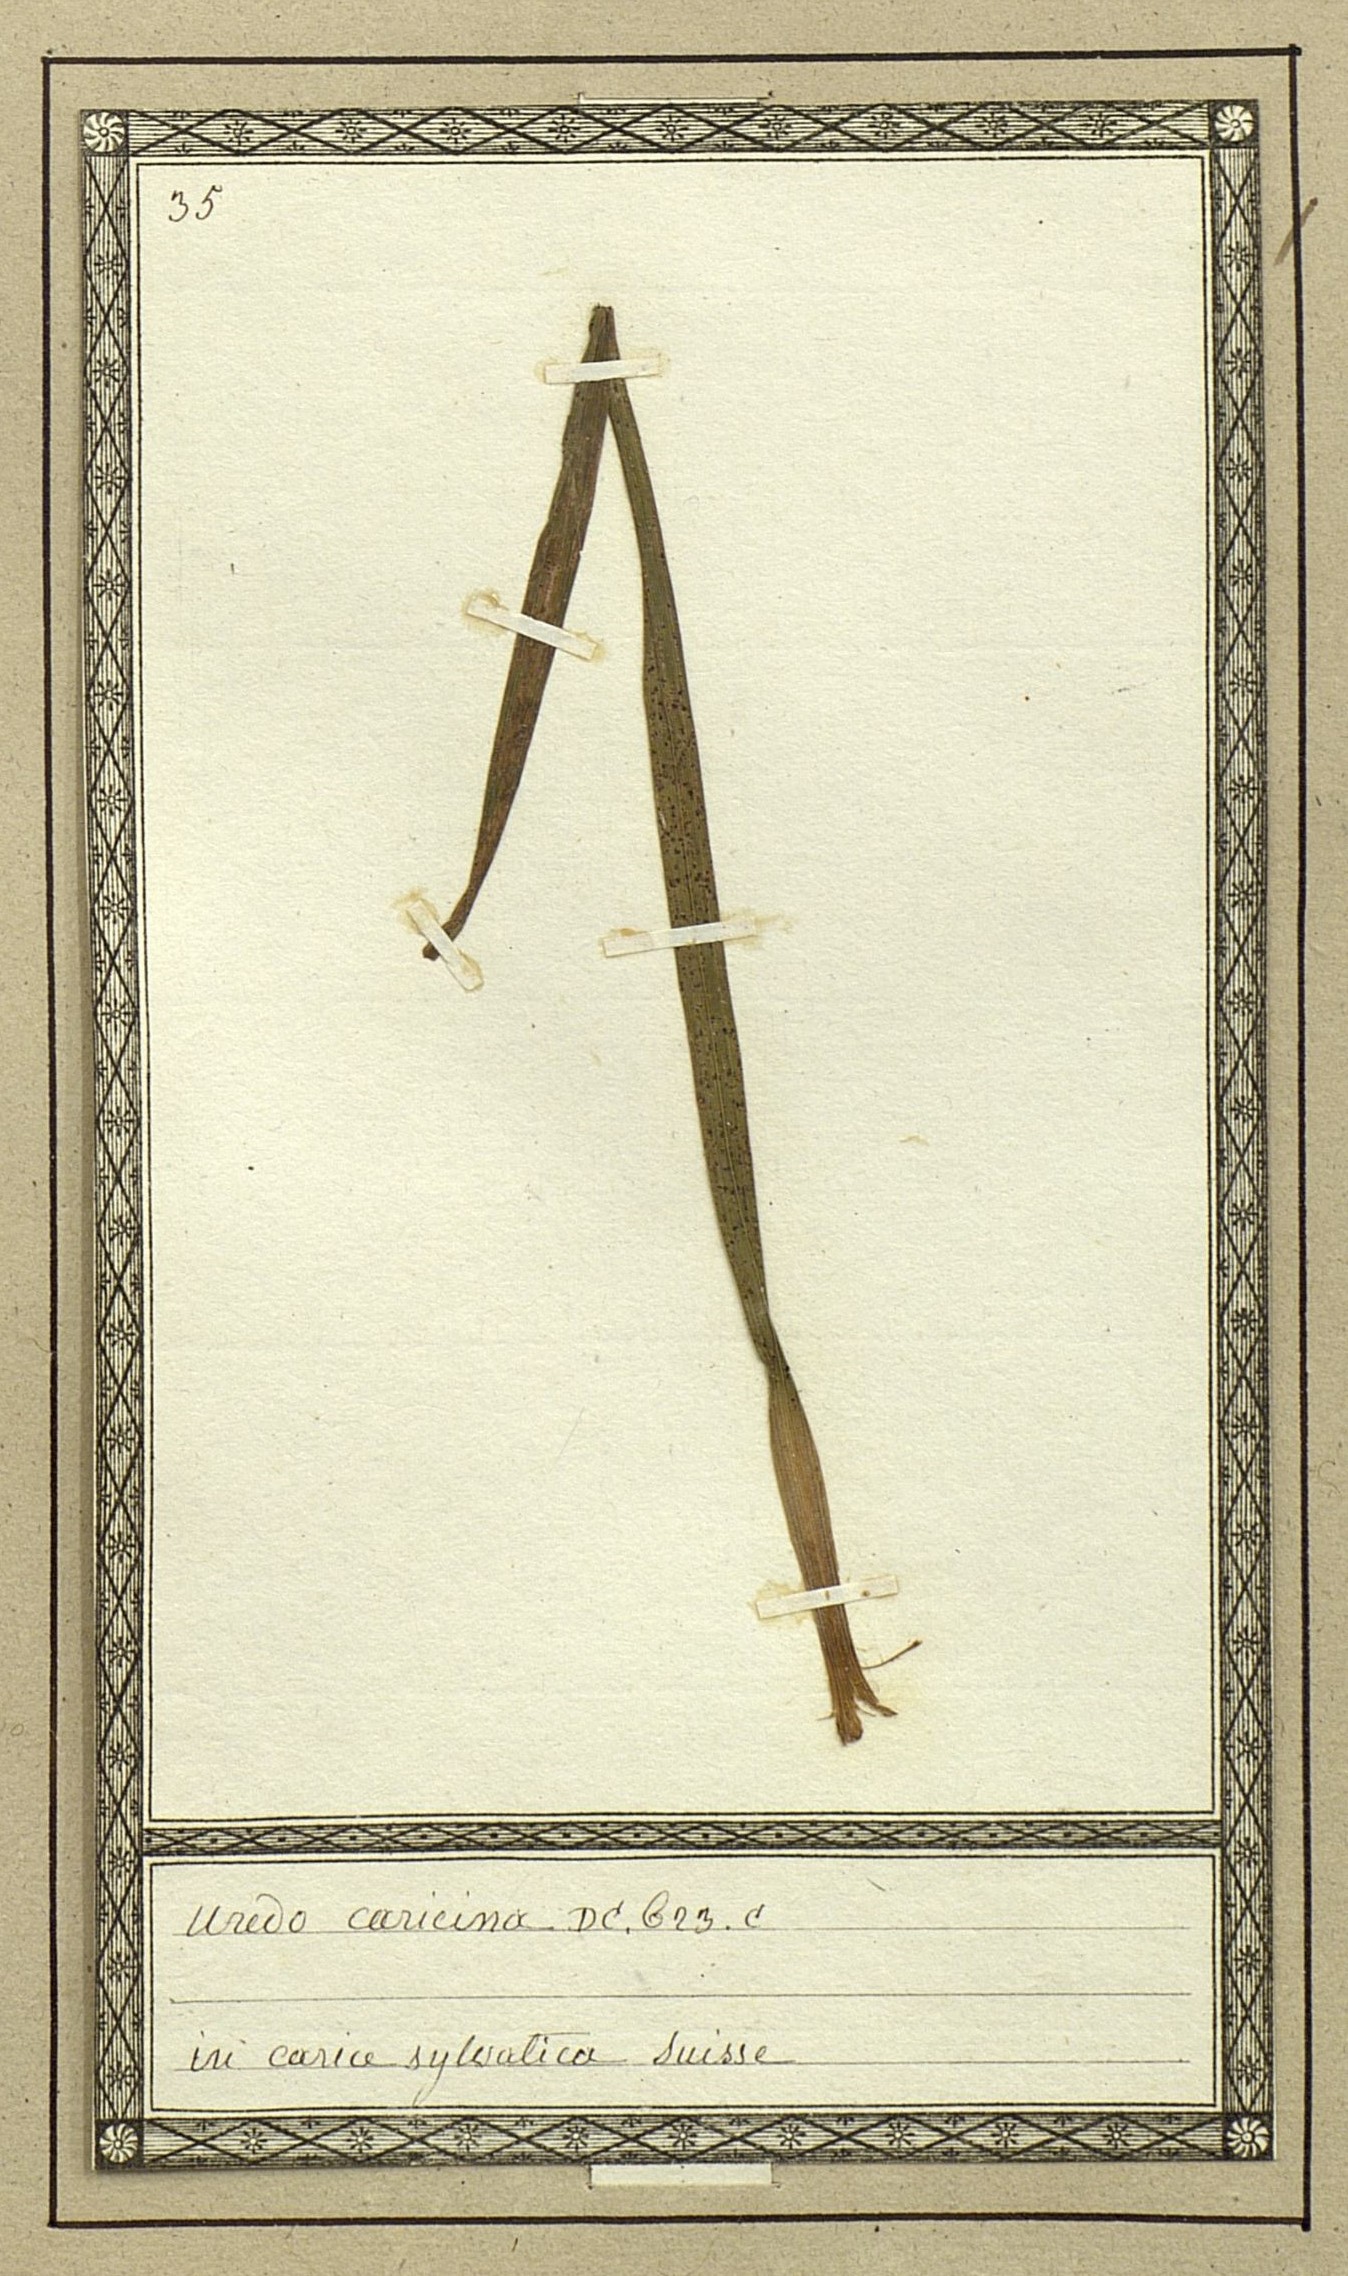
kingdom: Fungi
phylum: Basidiomycota
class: Pucciniomycetes
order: Pucciniales
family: Pucciniaceae
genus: Puccinia
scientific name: Puccinia caricina
